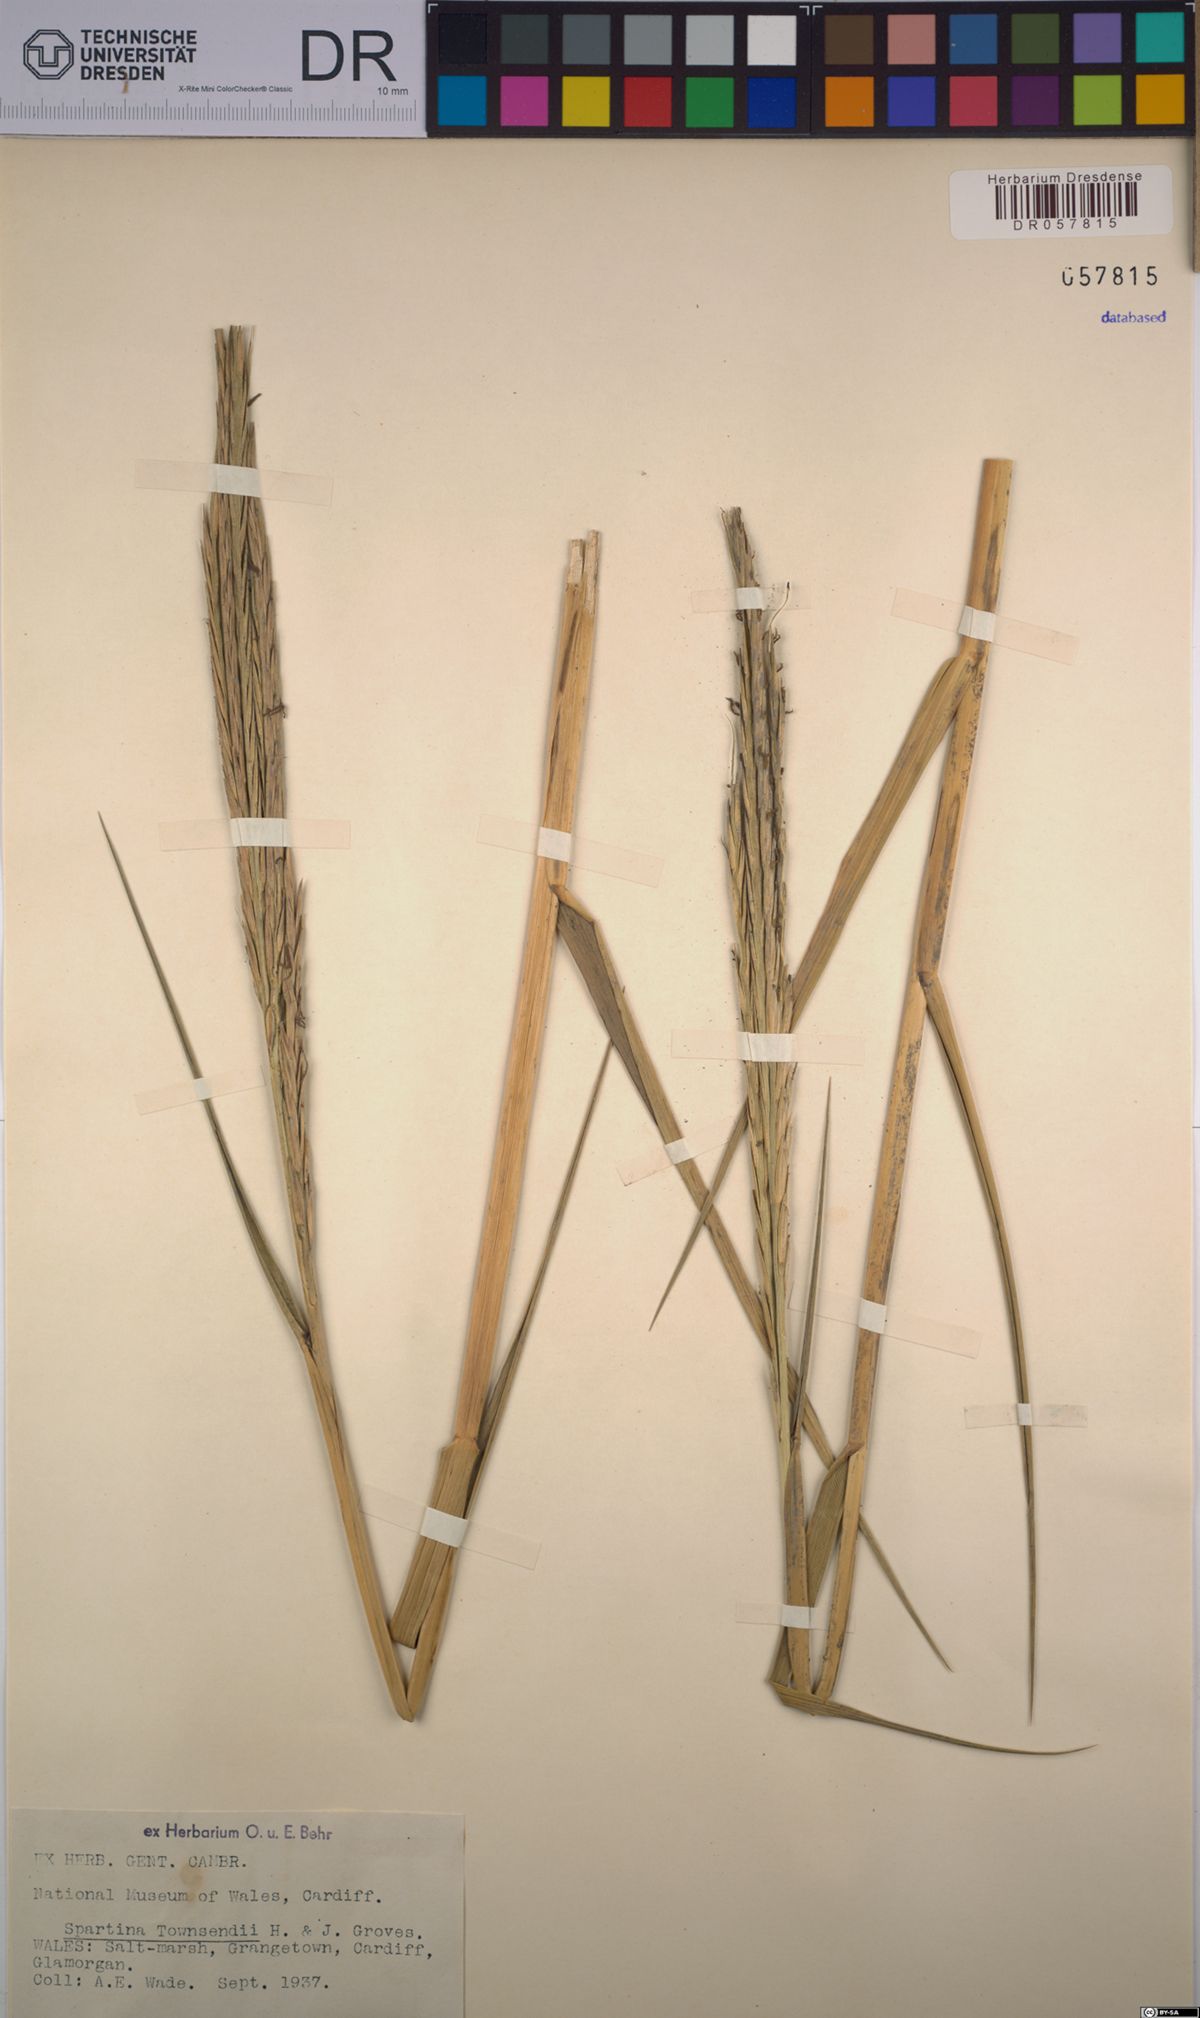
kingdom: Plantae
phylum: Tracheophyta
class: Liliopsida
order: Poales
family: Poaceae
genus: Sporobolus
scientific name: Sporobolus townsendii
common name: Townsend's cordgrass
